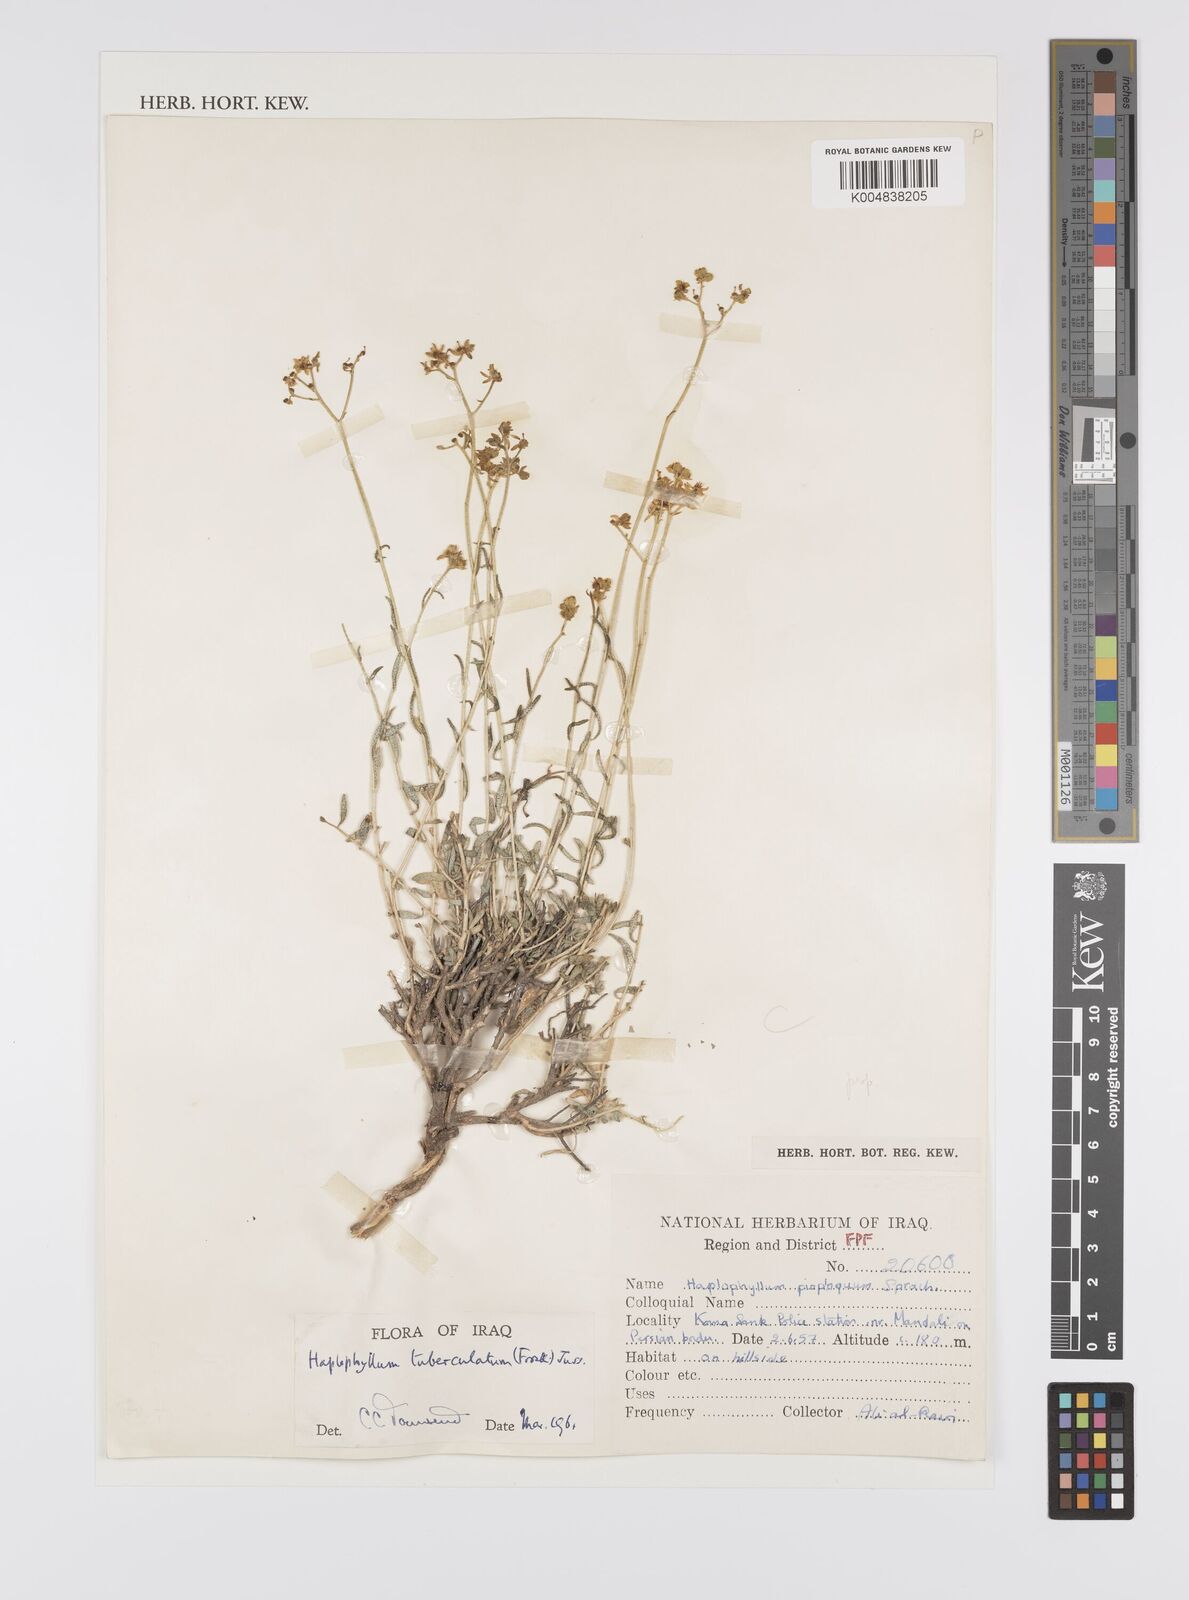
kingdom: Plantae
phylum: Tracheophyta
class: Magnoliopsida
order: Sapindales
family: Rutaceae
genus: Haplophyllum
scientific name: Haplophyllum tuberculatum
